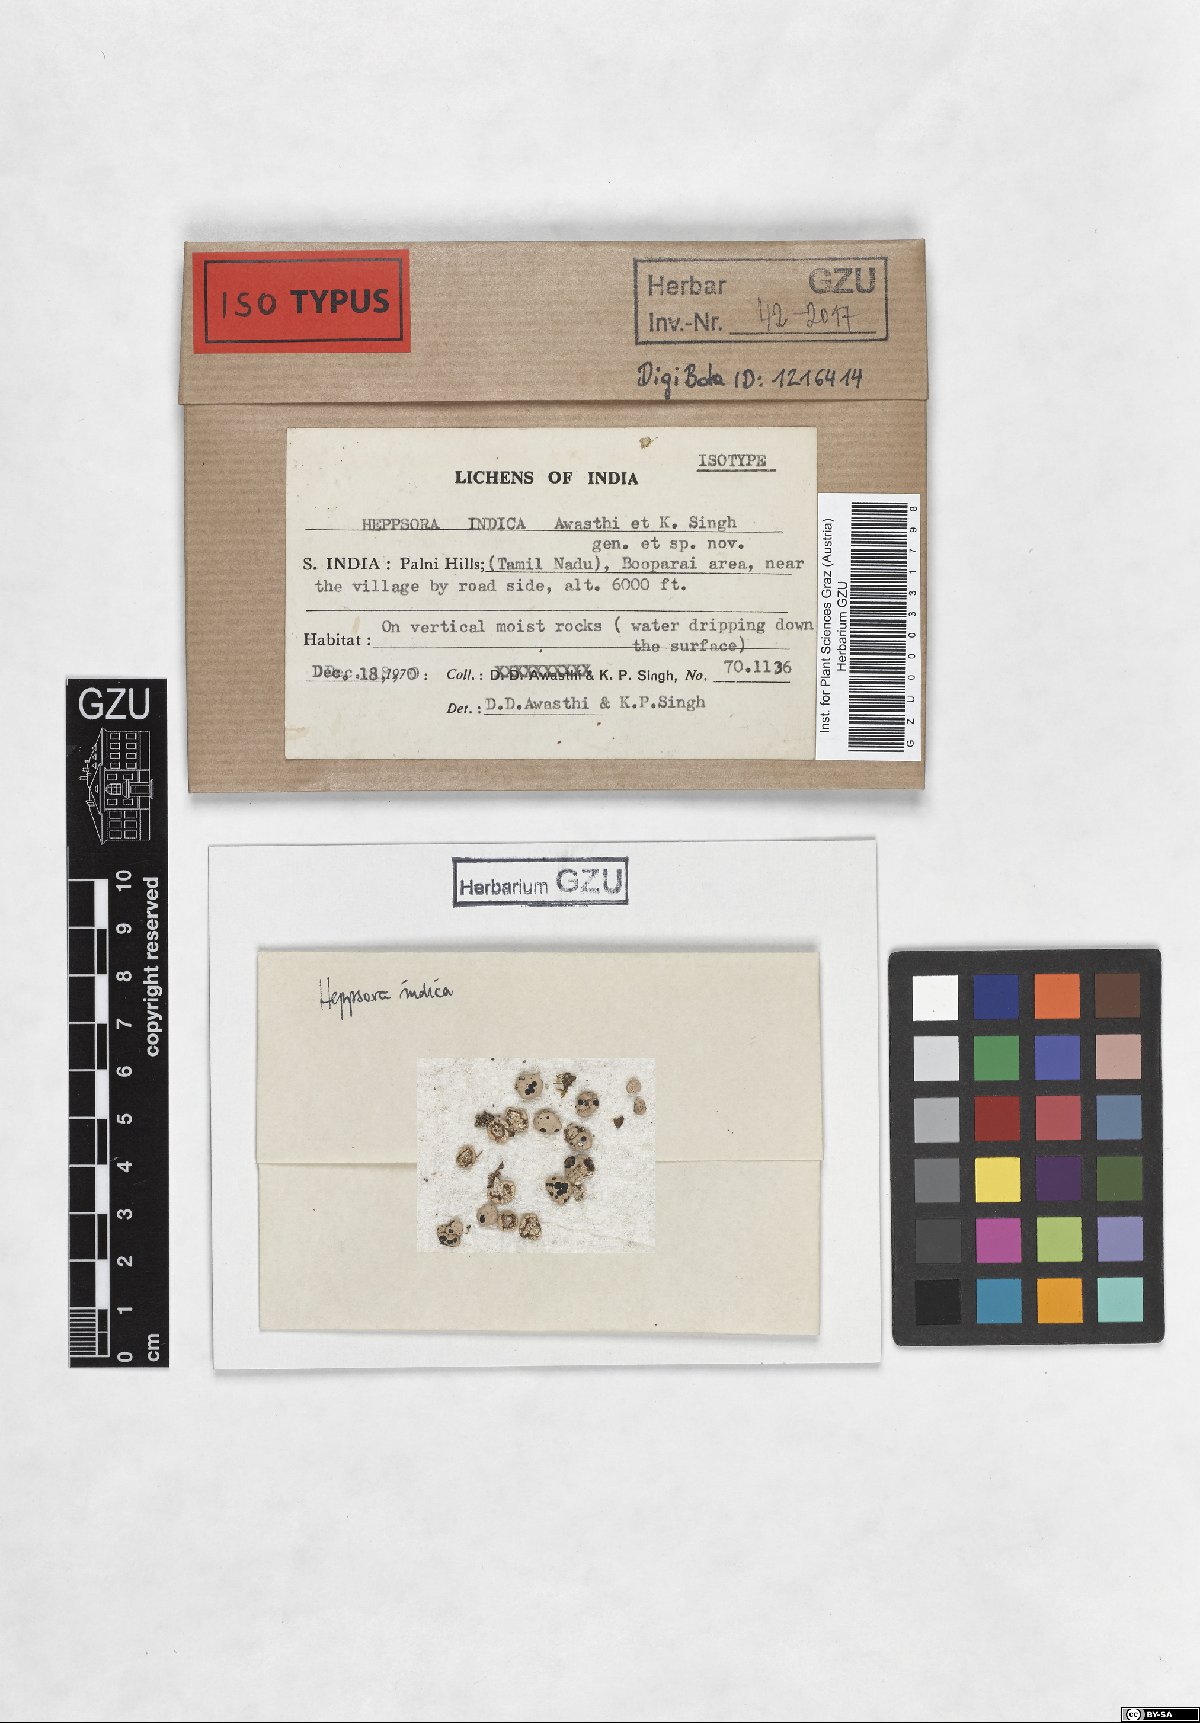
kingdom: Fungi
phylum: Ascomycota
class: Lecanoromycetes
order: Lecanorales
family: Ramalinaceae
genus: Heppsora
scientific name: Heppsora indica
